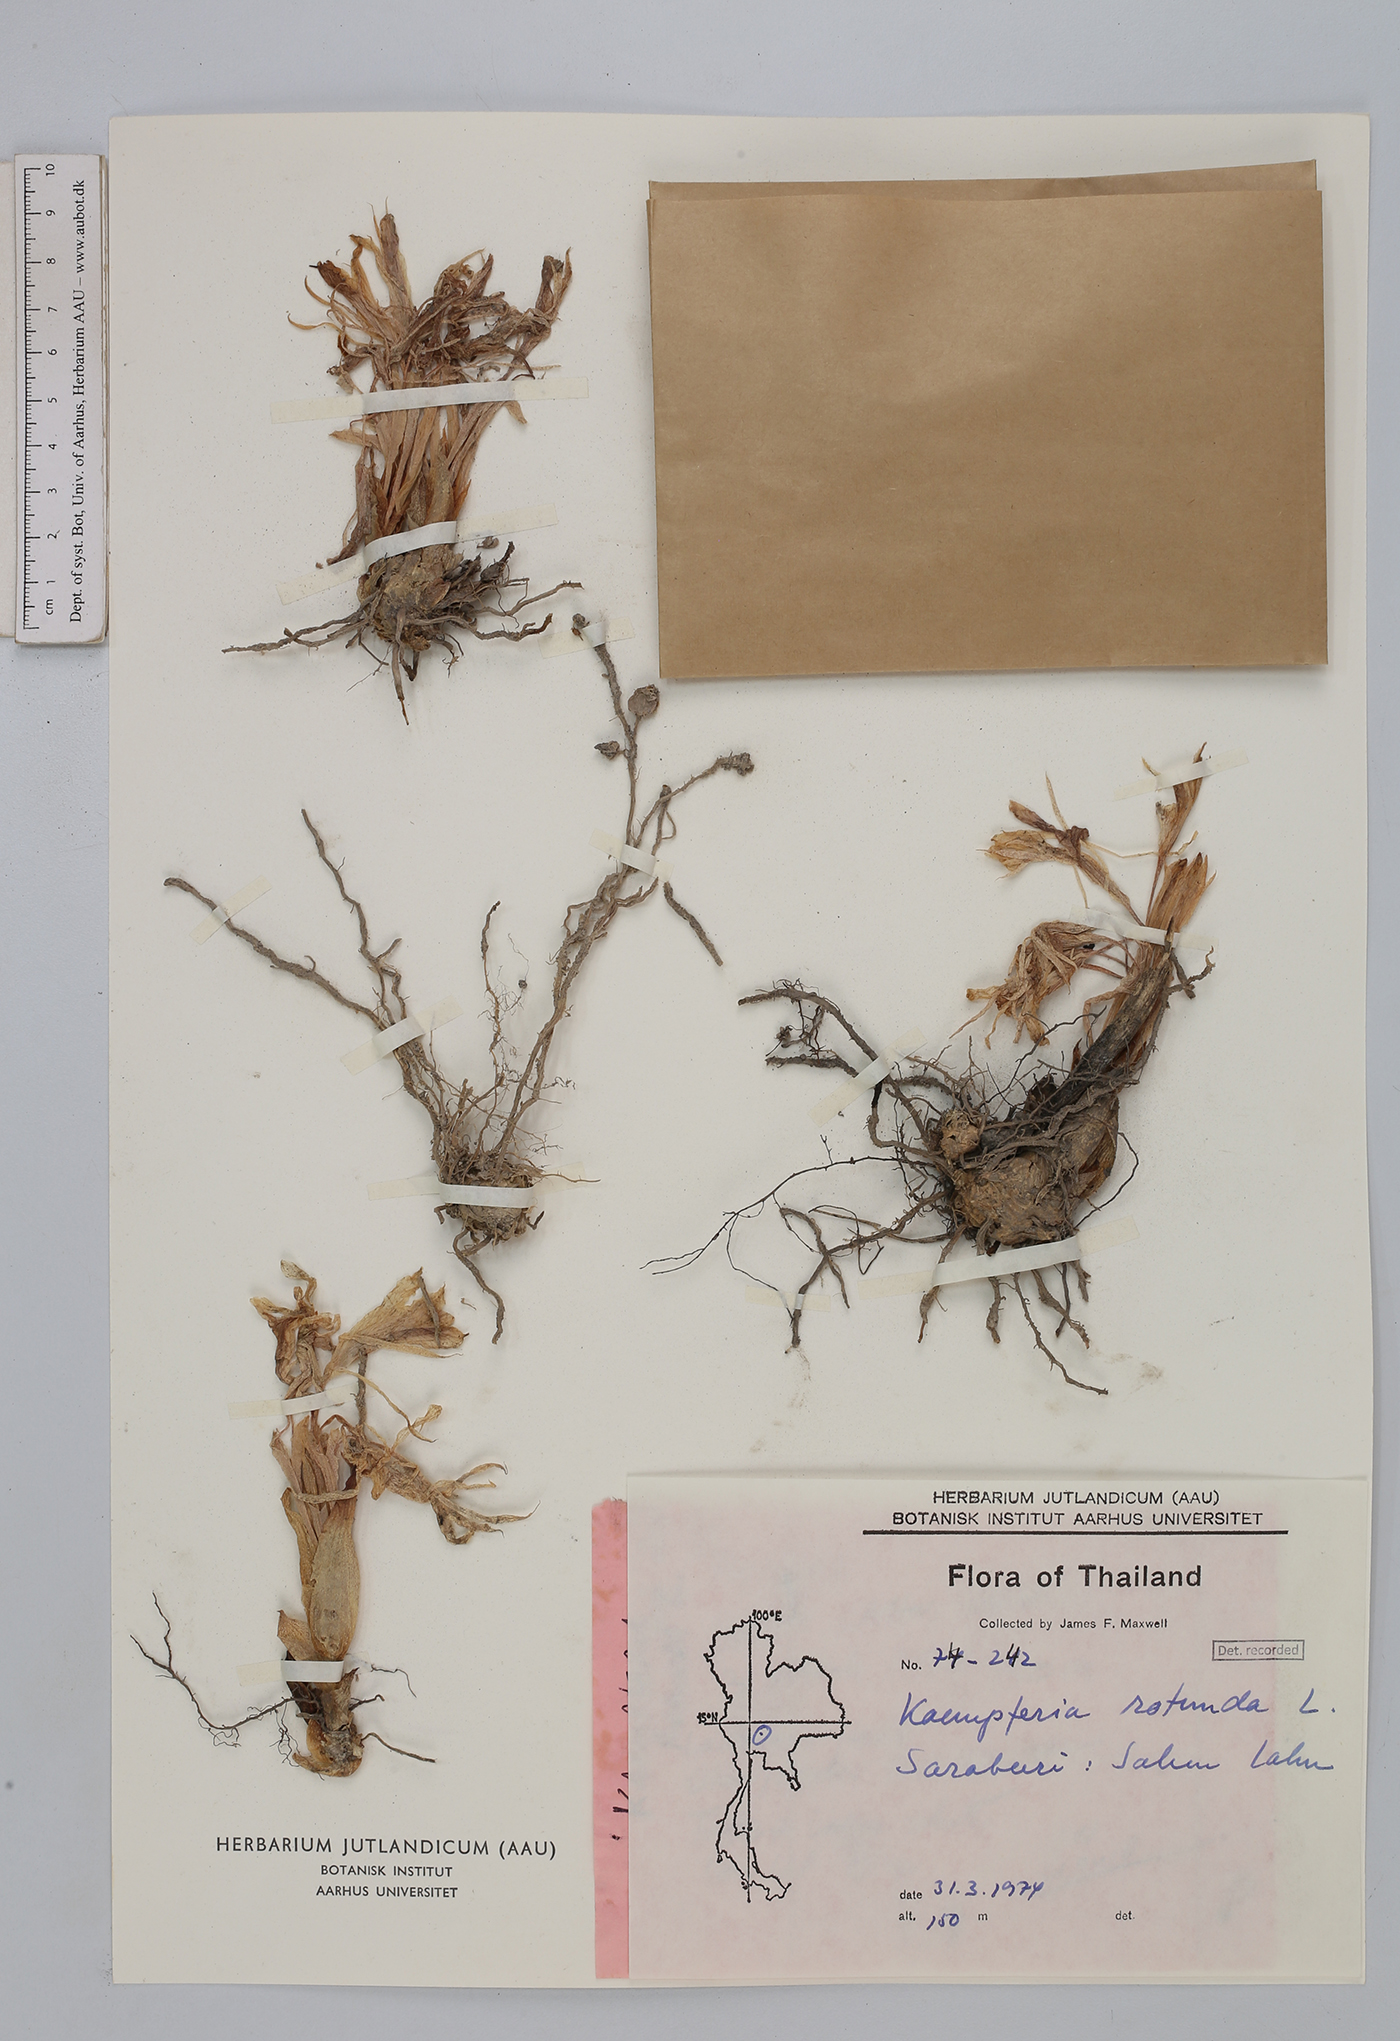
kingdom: Plantae
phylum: Tracheophyta
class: Liliopsida
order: Zingiberales
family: Zingiberaceae
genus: Kaempferia
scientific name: Kaempferia rotunda
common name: Tropical-crocus
